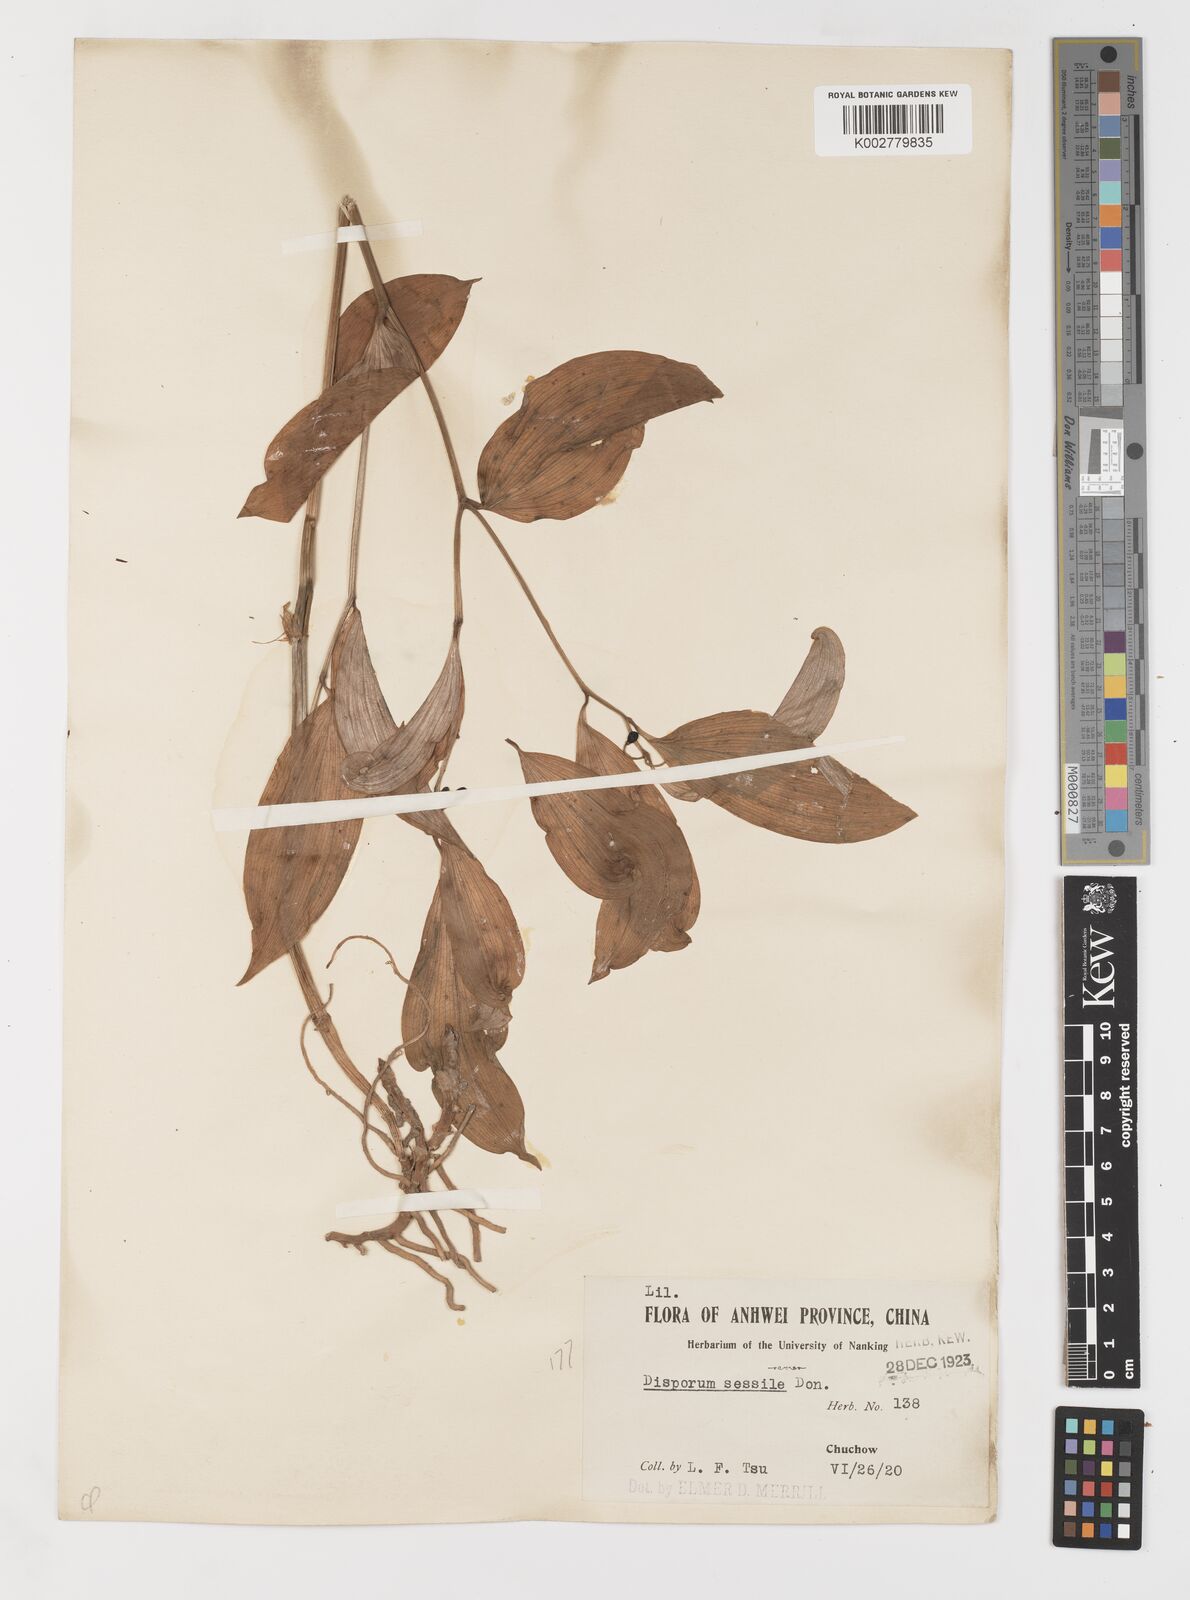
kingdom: Plantae
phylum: Tracheophyta
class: Liliopsida
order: Liliales
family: Colchicaceae
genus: Disporum
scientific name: Disporum sessile
